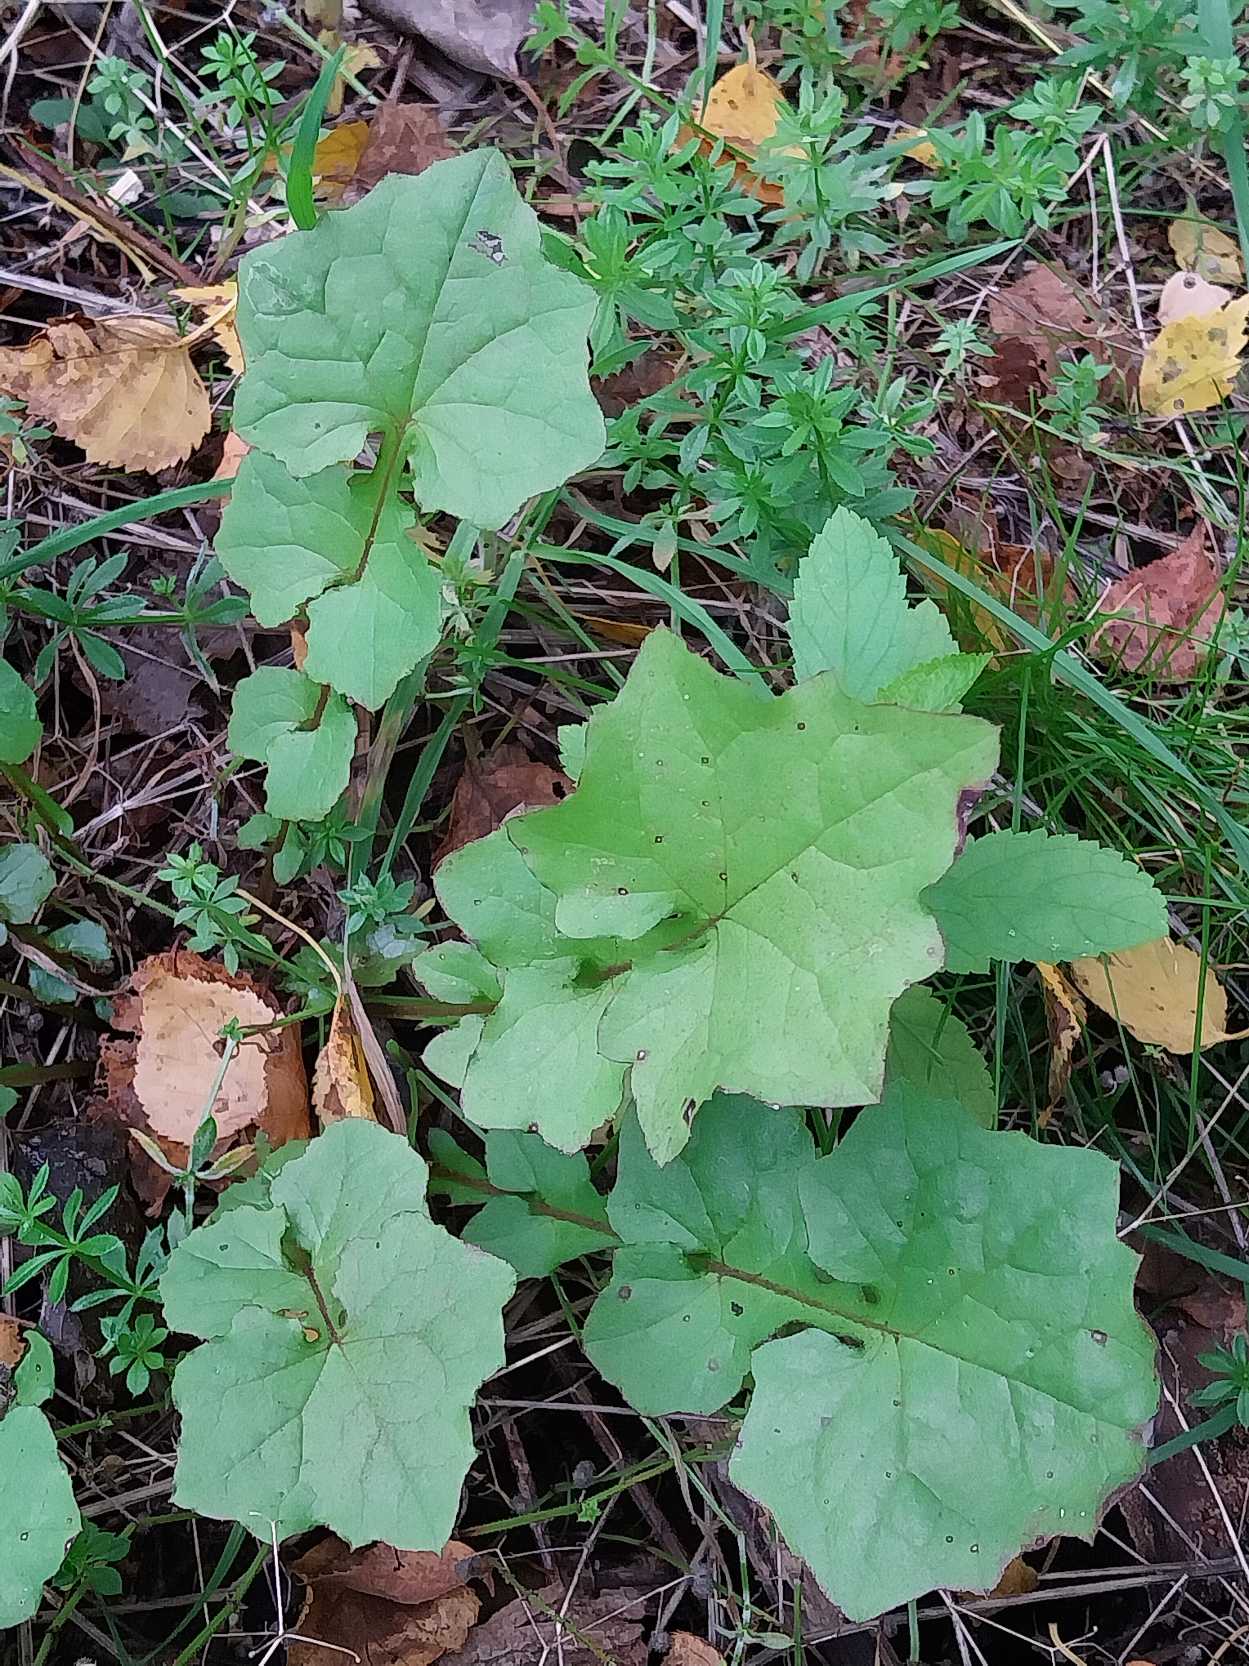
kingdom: Plantae
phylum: Tracheophyta
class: Magnoliopsida
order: Asterales
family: Asteraceae
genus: Mycelis
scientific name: Mycelis muralis
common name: Skov-salat
